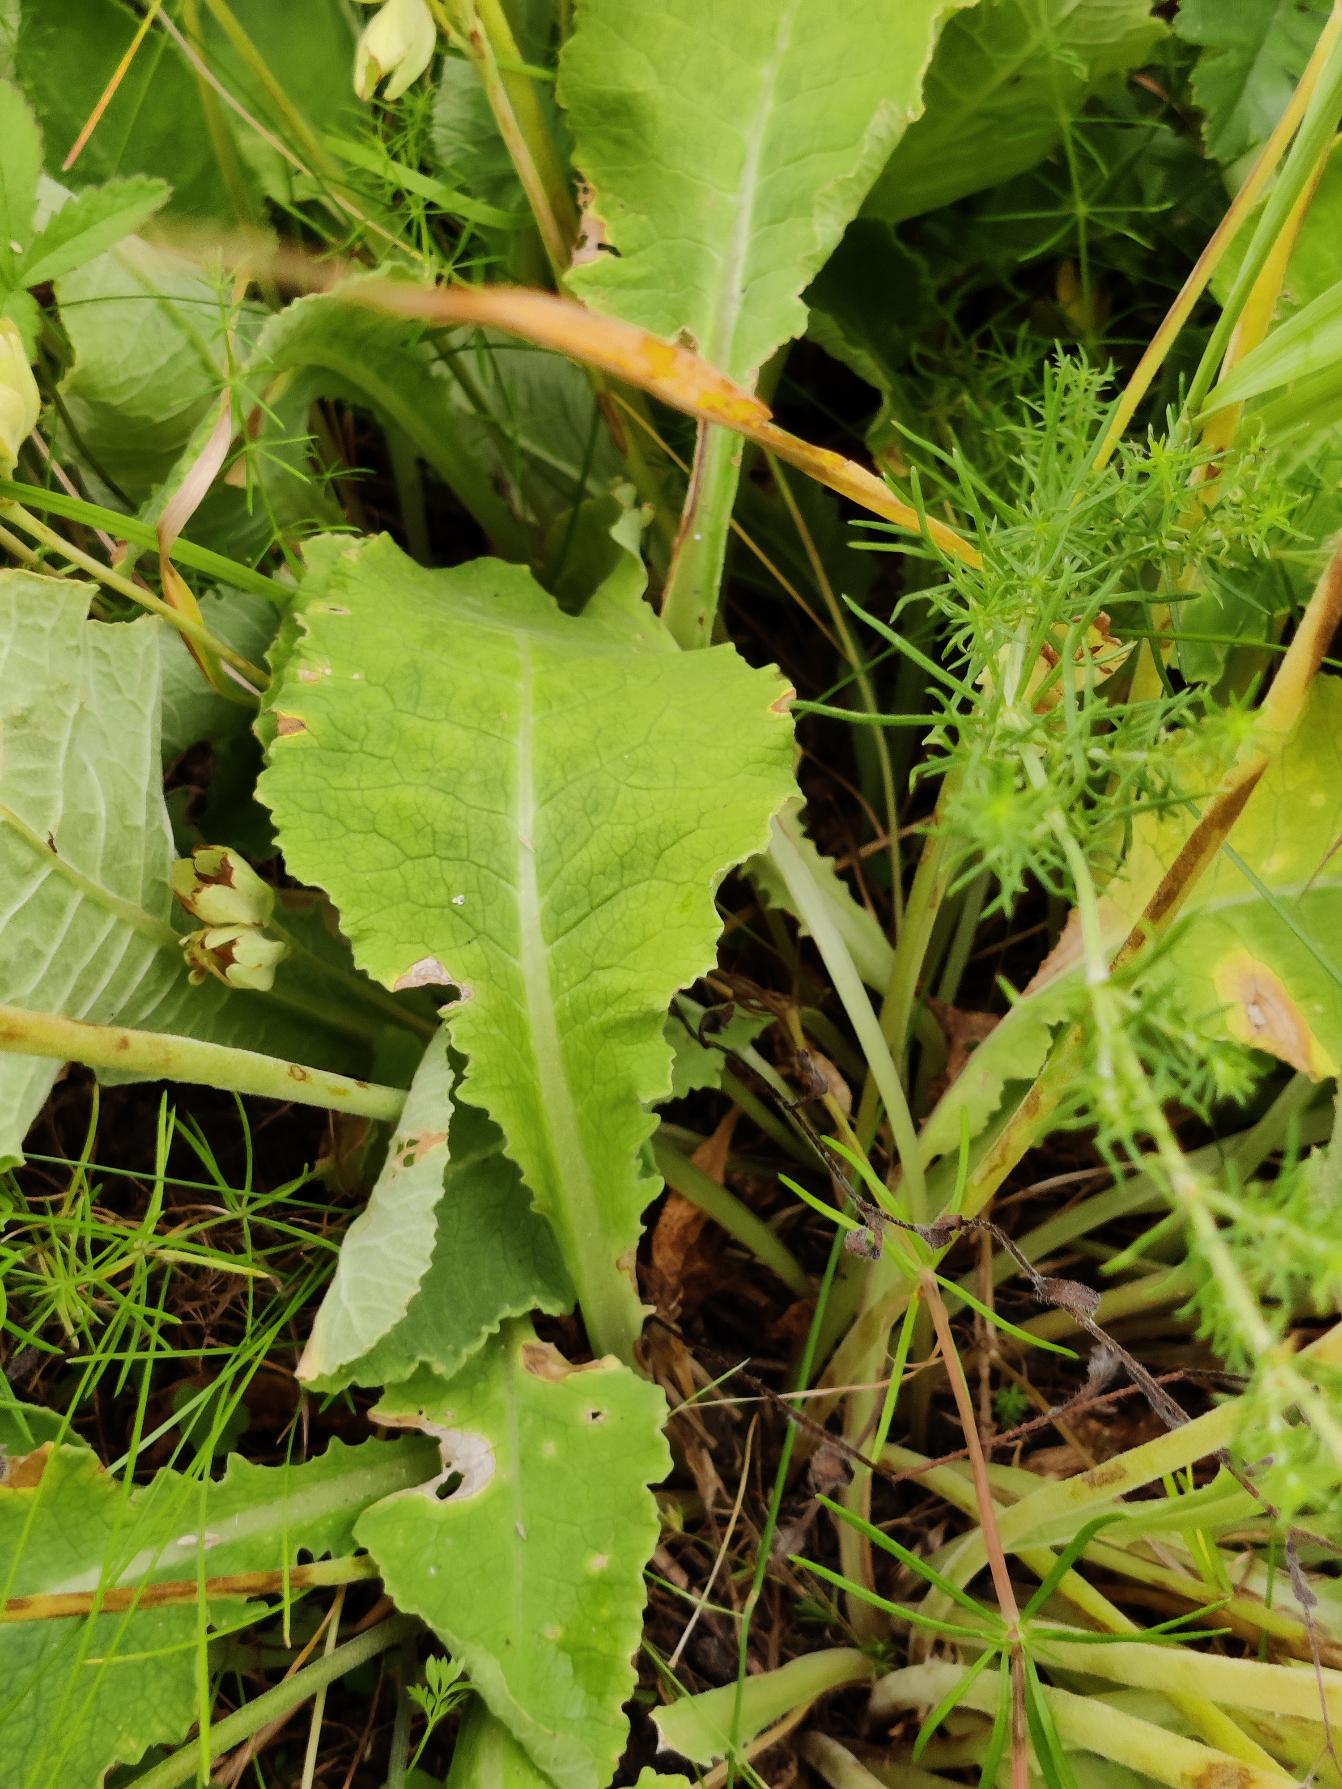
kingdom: Plantae
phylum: Tracheophyta
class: Magnoliopsida
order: Ericales
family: Primulaceae
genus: Primula
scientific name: Primula veris
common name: Hulkravet kodriver
